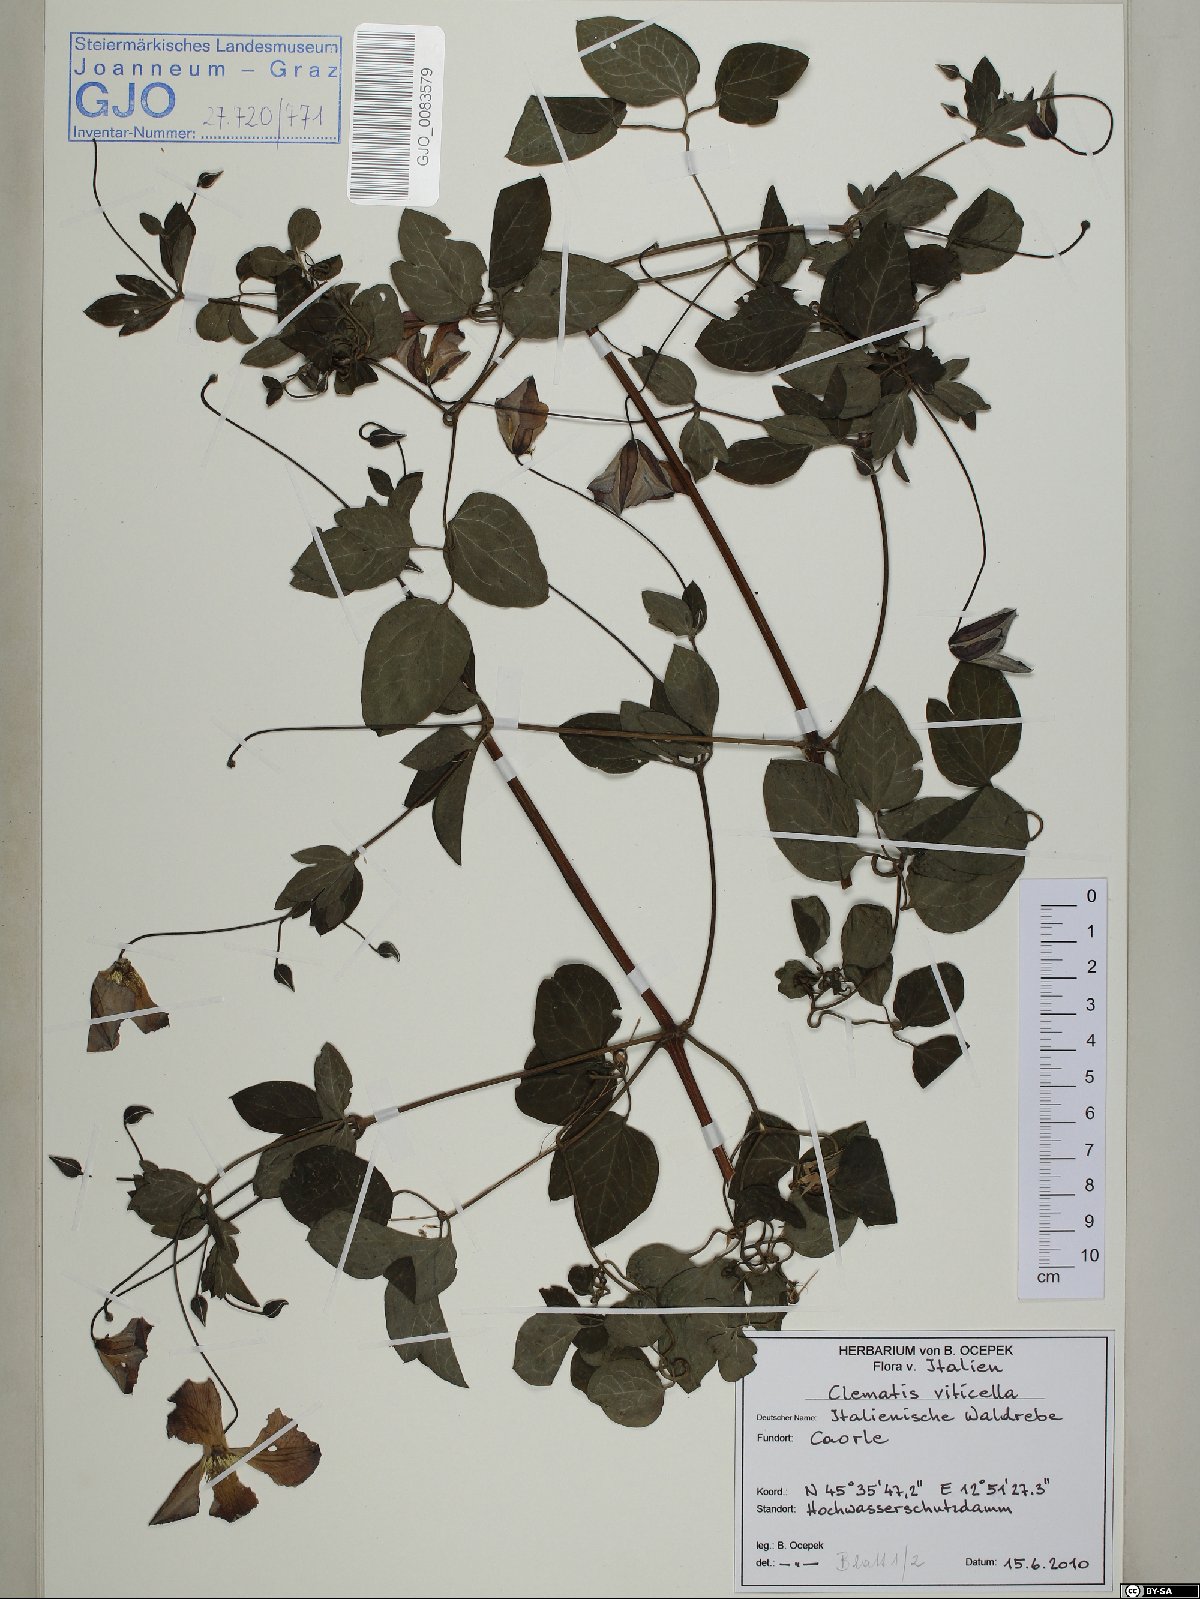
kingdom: Plantae
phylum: Tracheophyta
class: Magnoliopsida
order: Ranunculales
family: Ranunculaceae
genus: Clematis
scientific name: Clematis viticella
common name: Purple clematis
